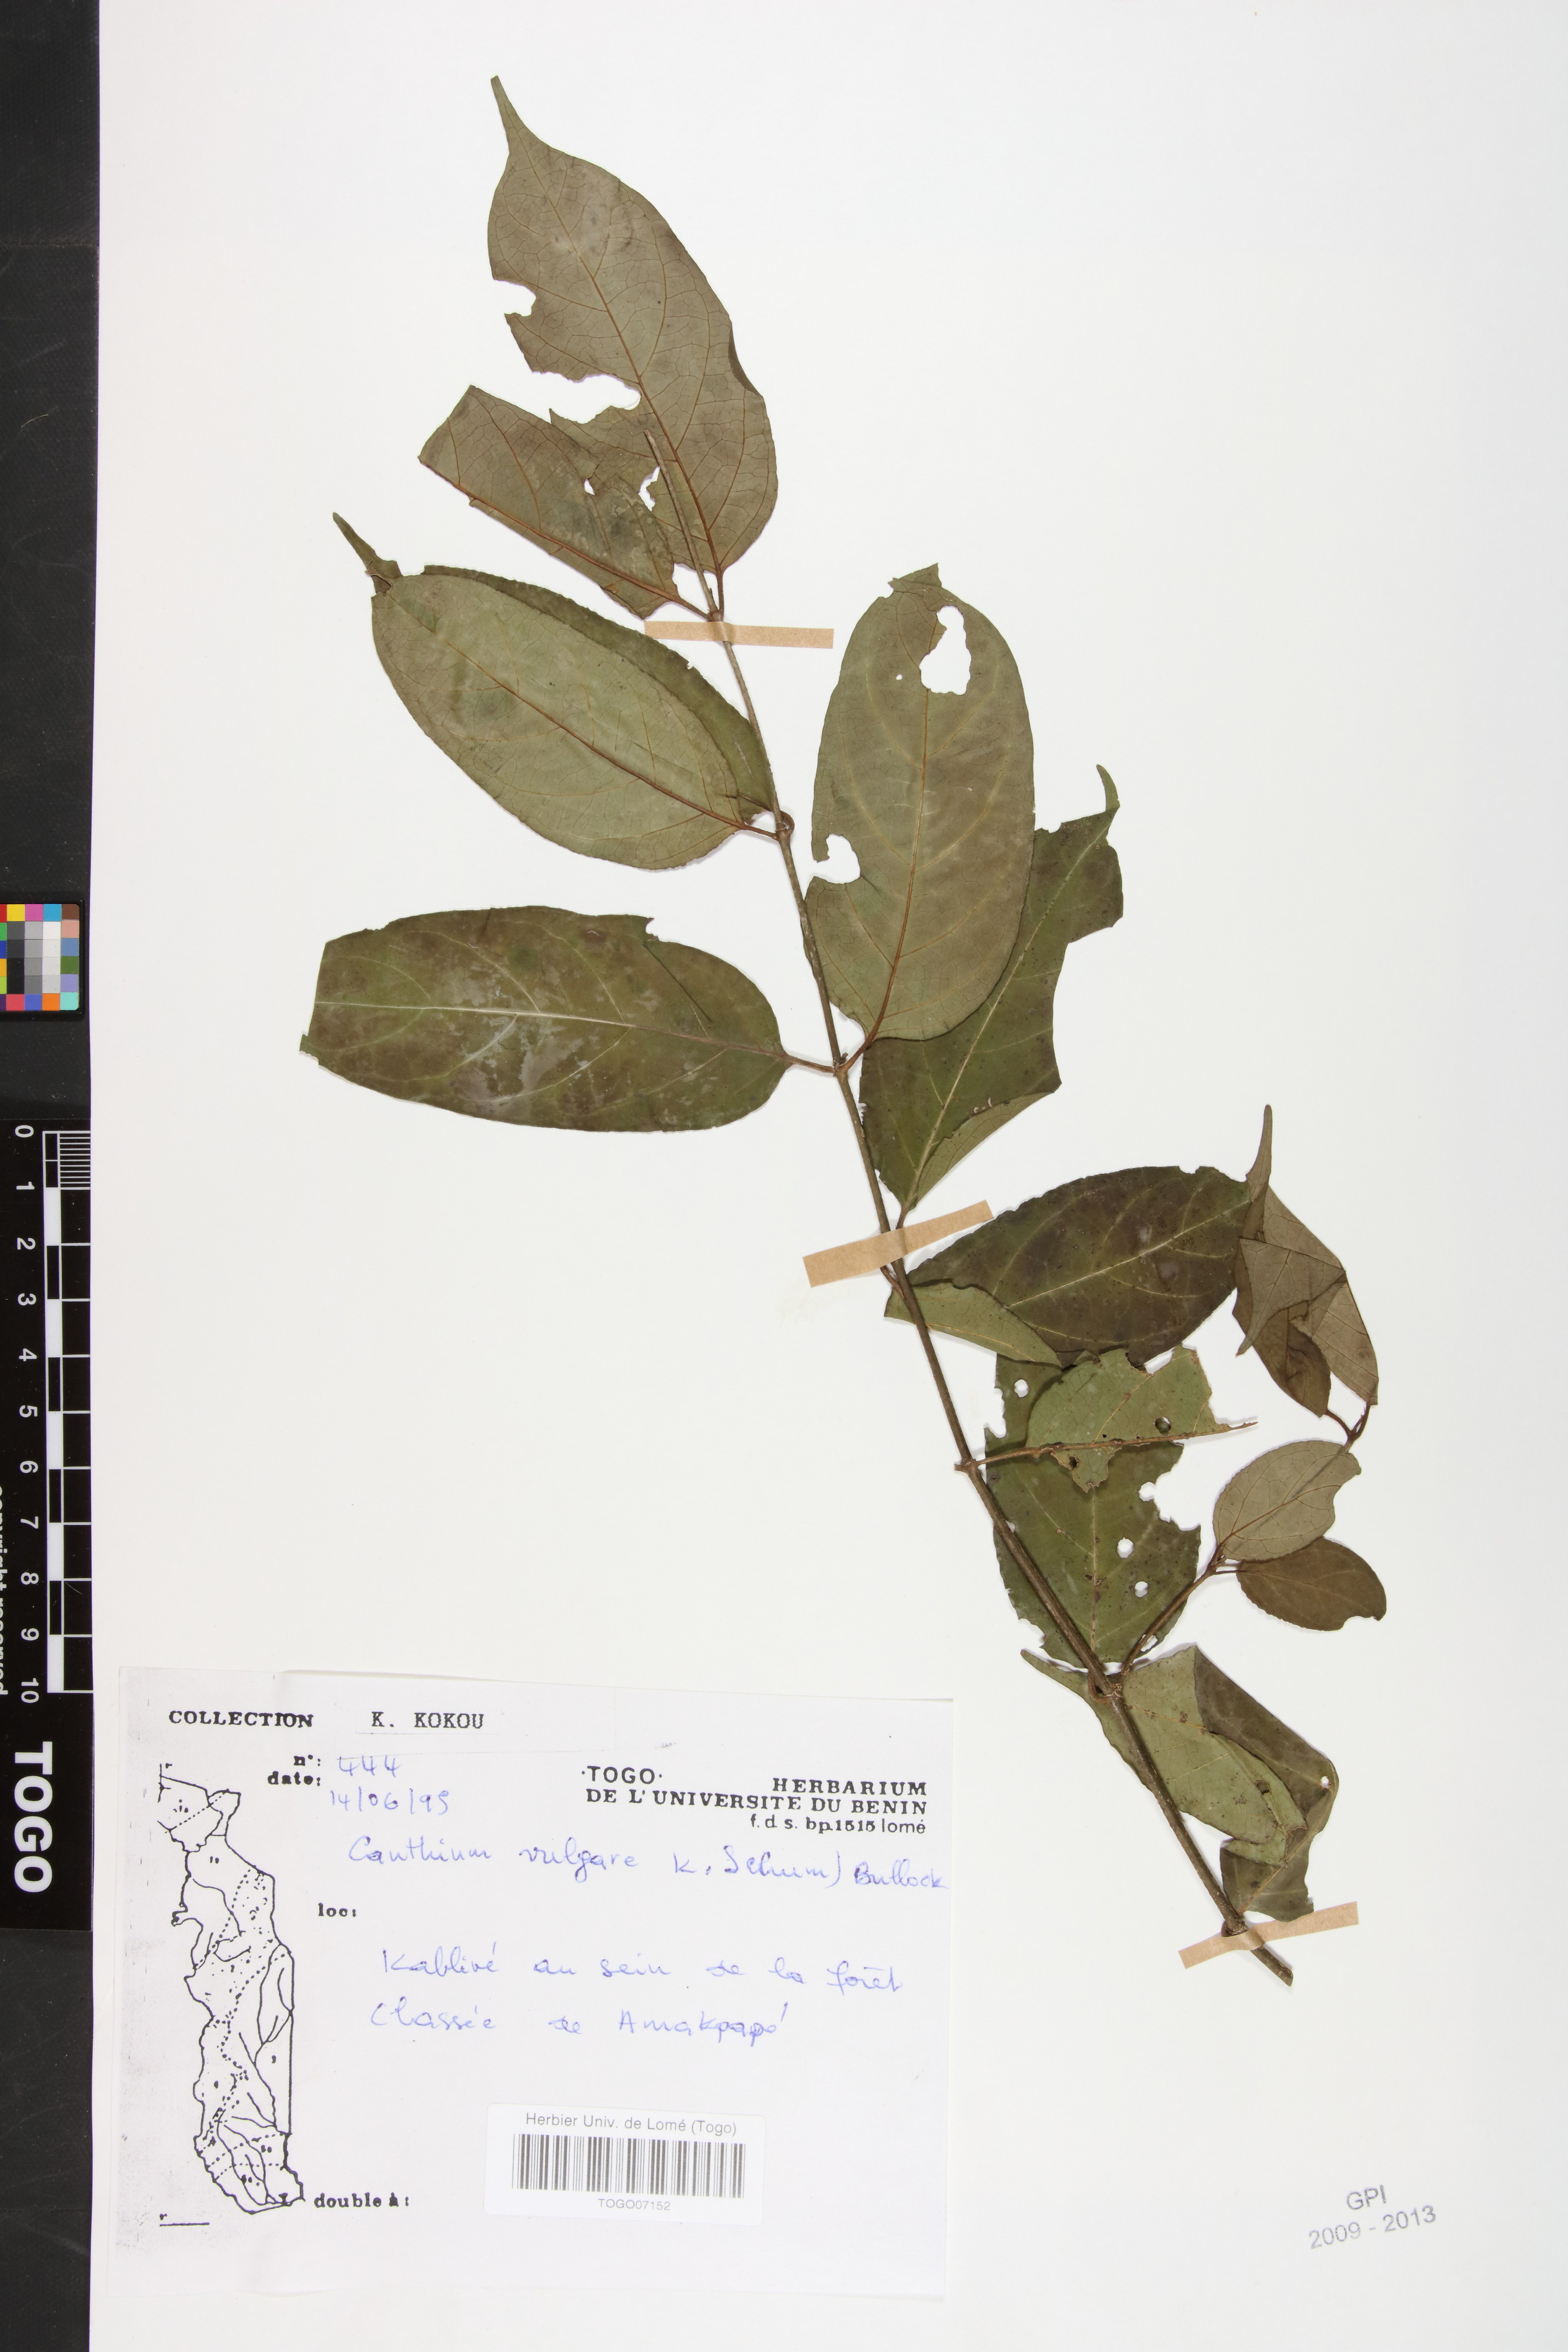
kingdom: Plantae
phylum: Tracheophyta
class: Magnoliopsida
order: Gentianales
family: Rubiaceae
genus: Psydrax
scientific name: Psydrax parviflorus
